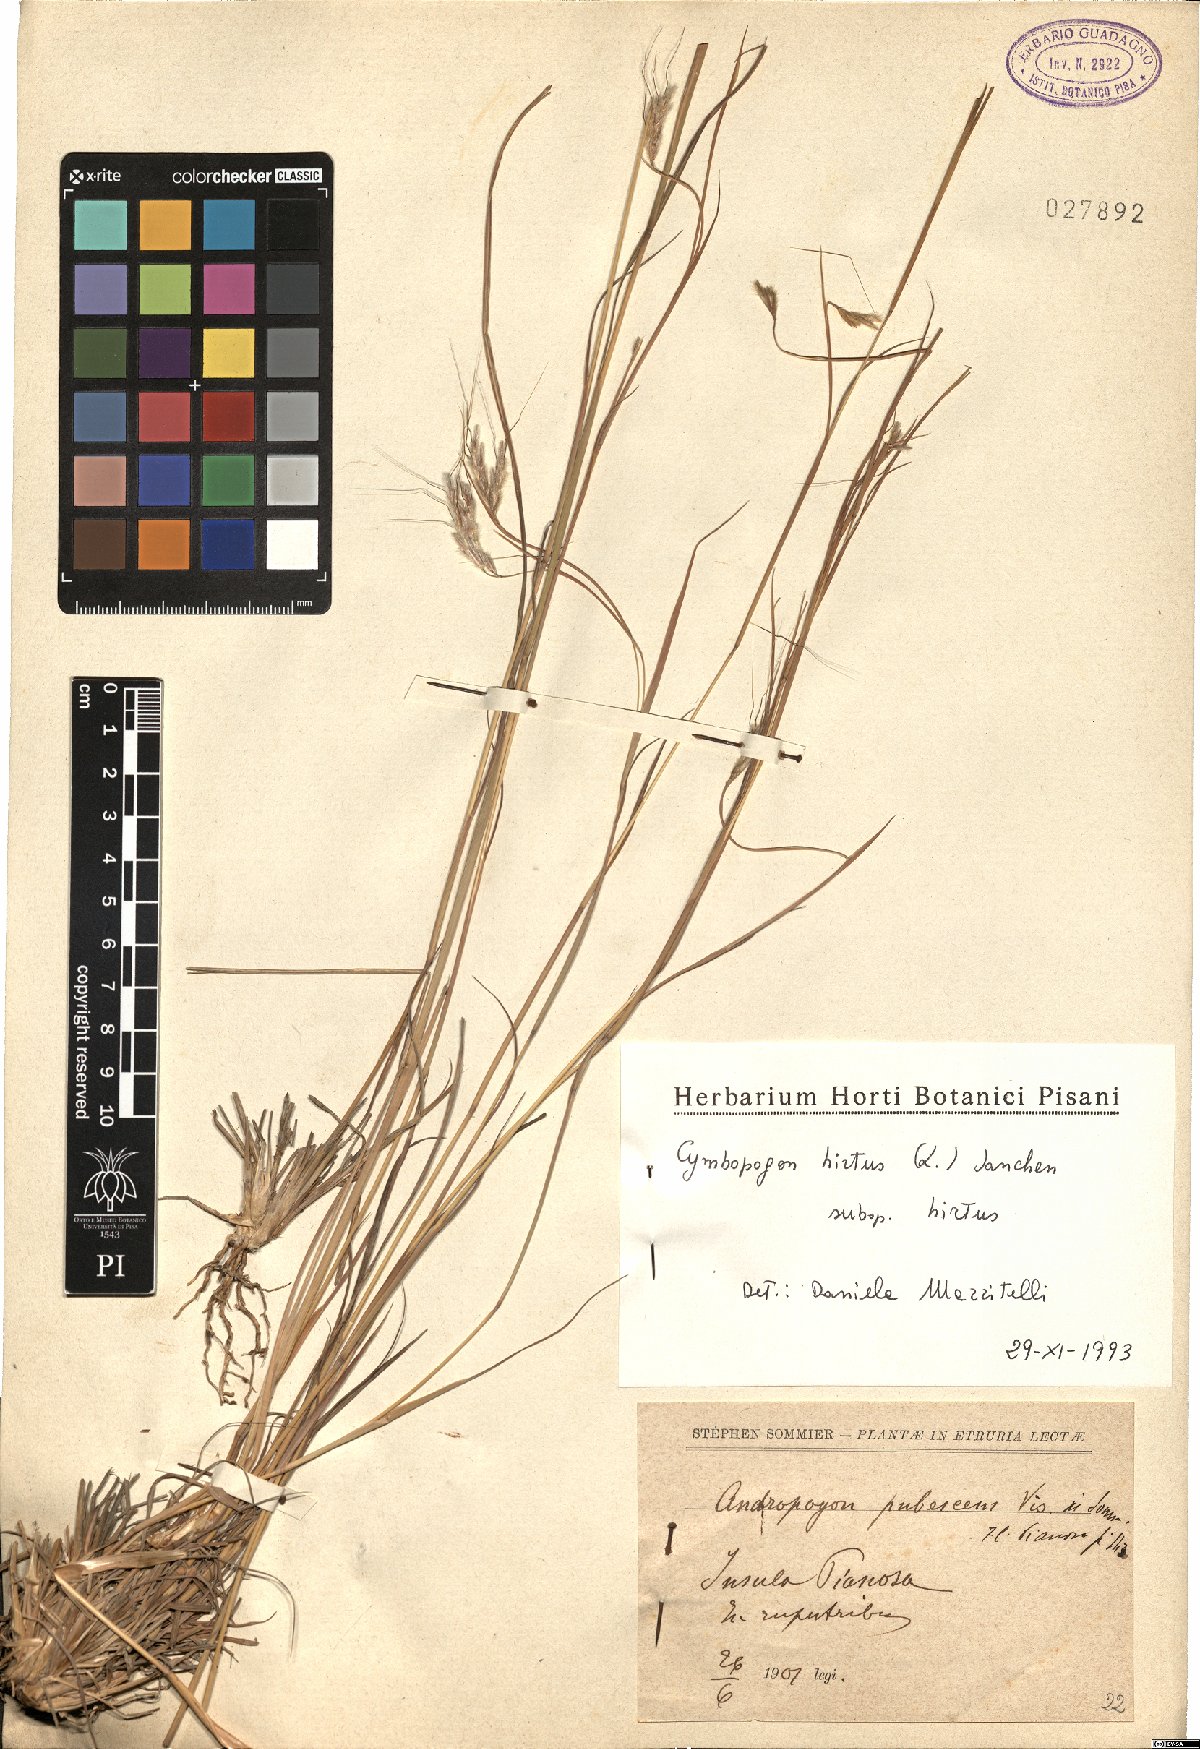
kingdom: Plantae
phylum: Tracheophyta
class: Liliopsida
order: Poales
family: Poaceae
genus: Cymbopogon
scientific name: Cymbopogon hirtus
